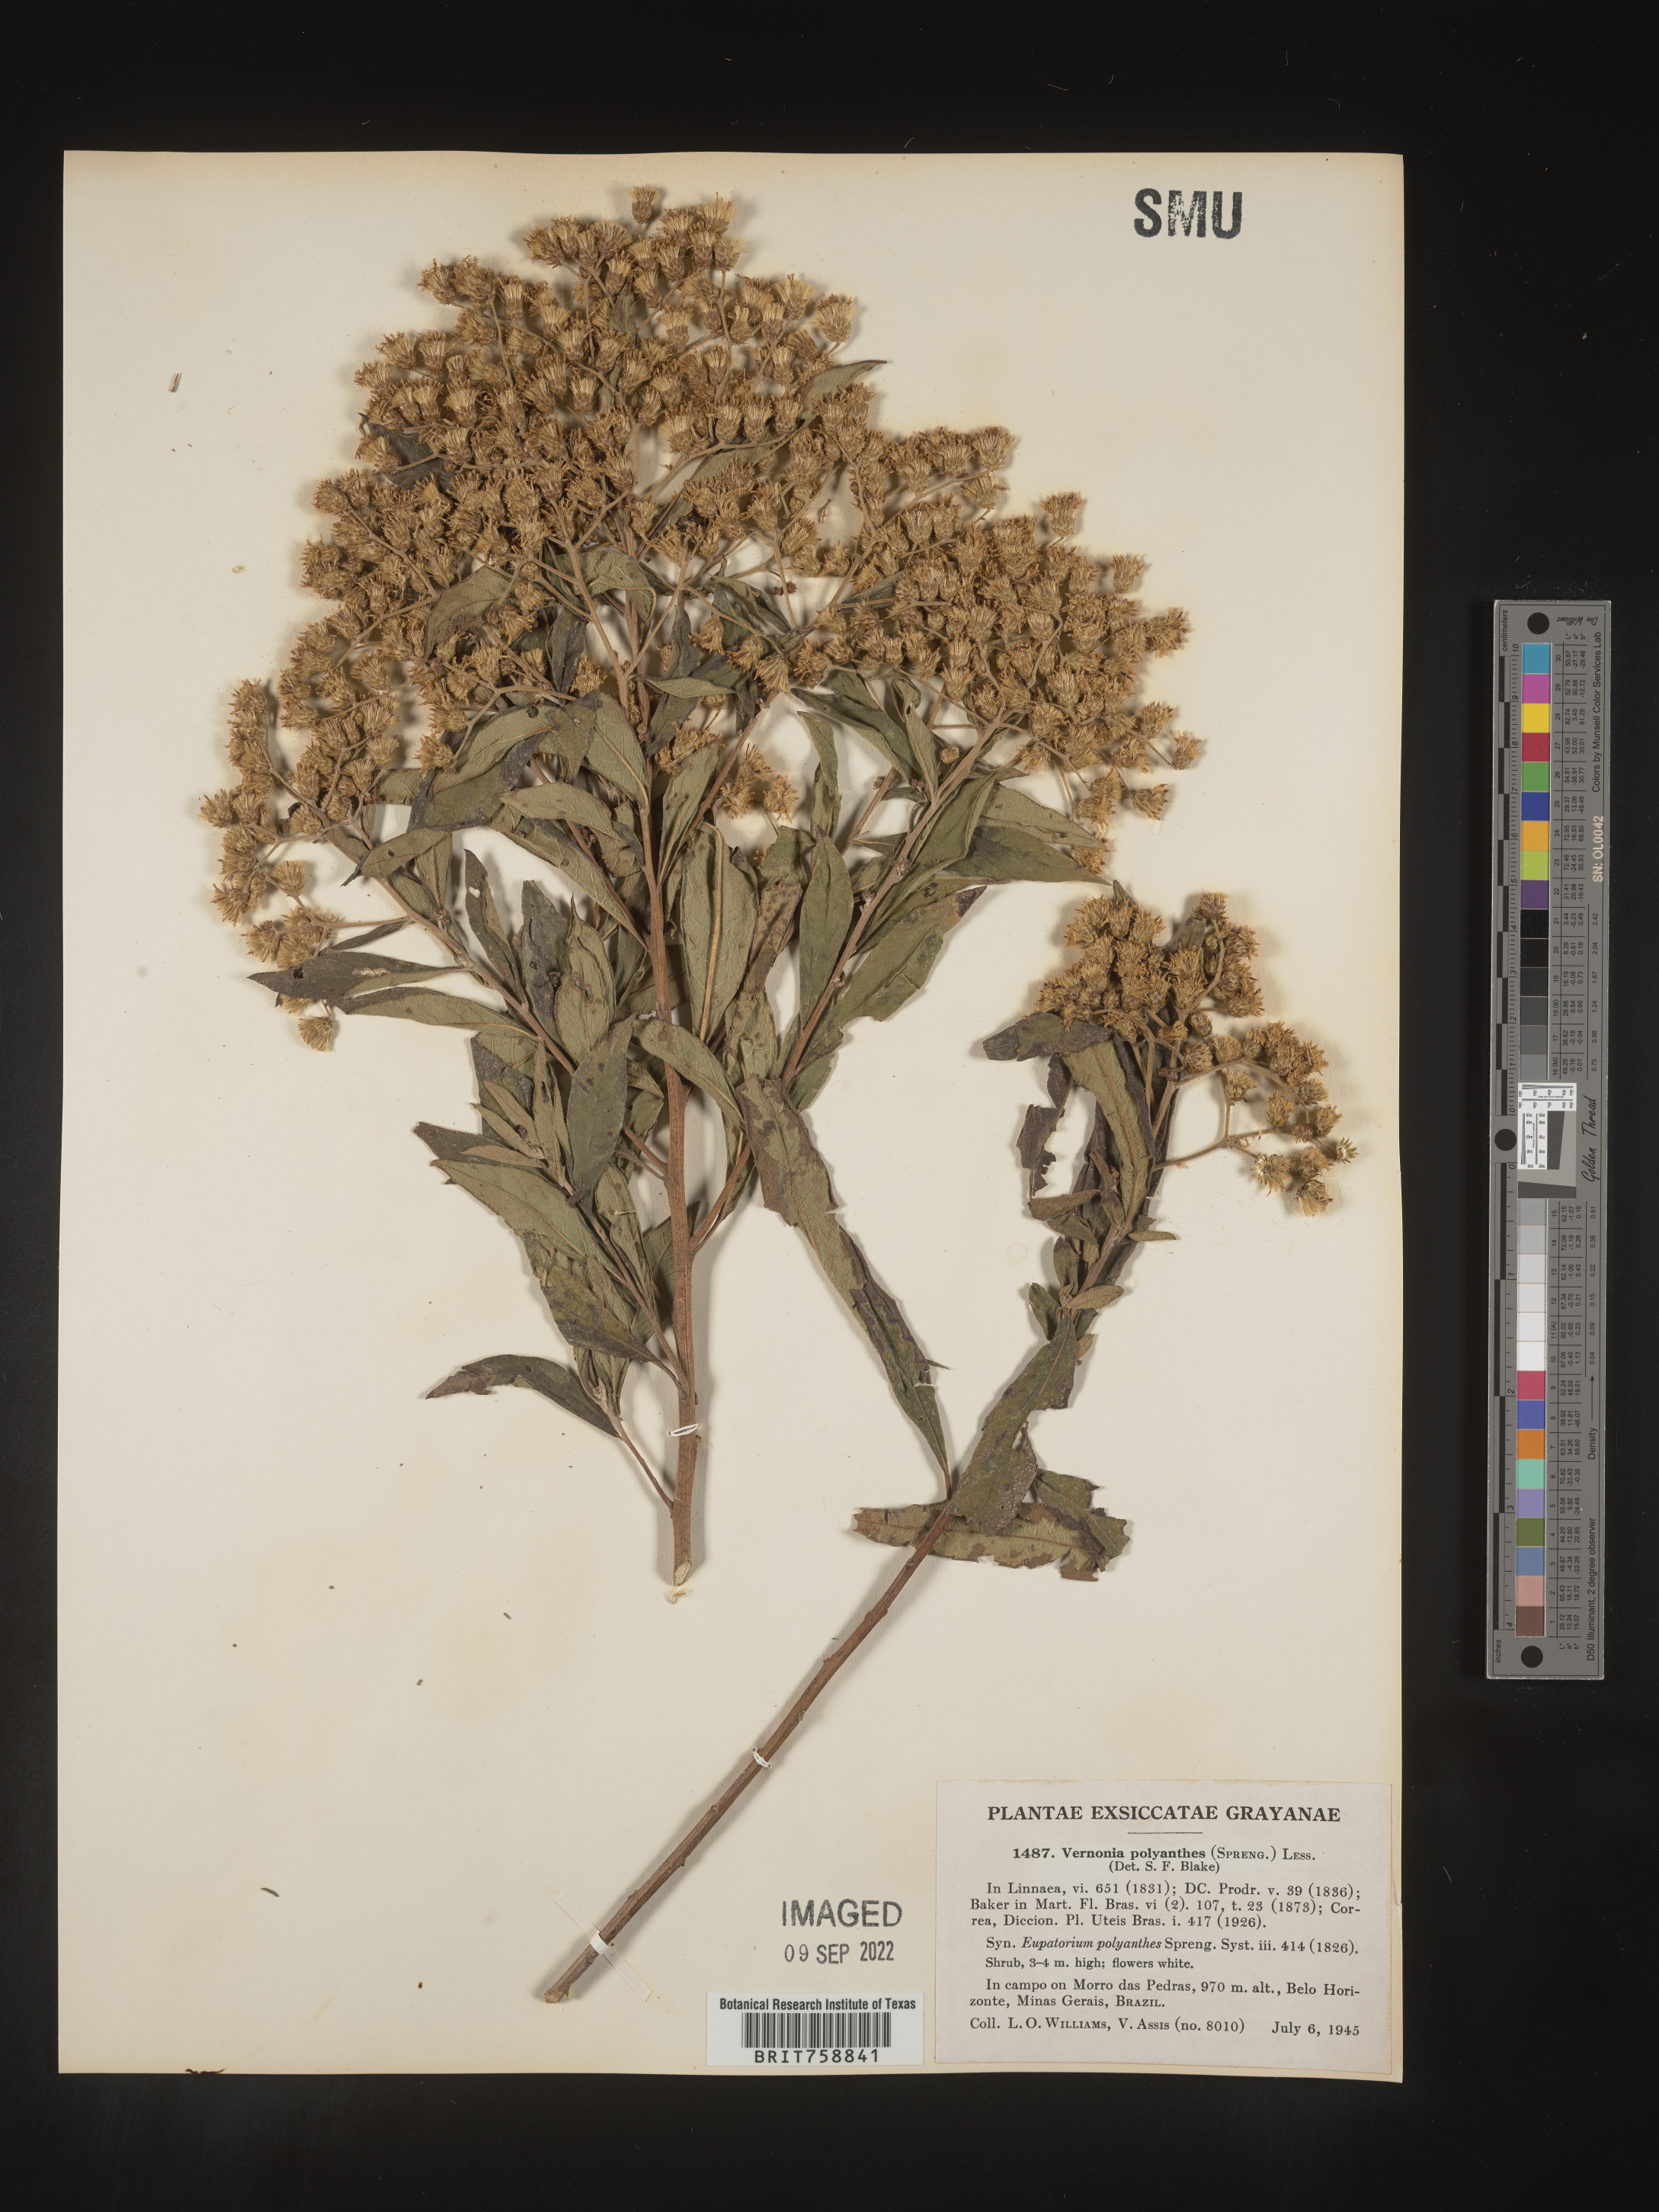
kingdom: Plantae
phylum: Tracheophyta
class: Magnoliopsida
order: Asterales
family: Asteraceae
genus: Vernonia
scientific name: Vernonia
